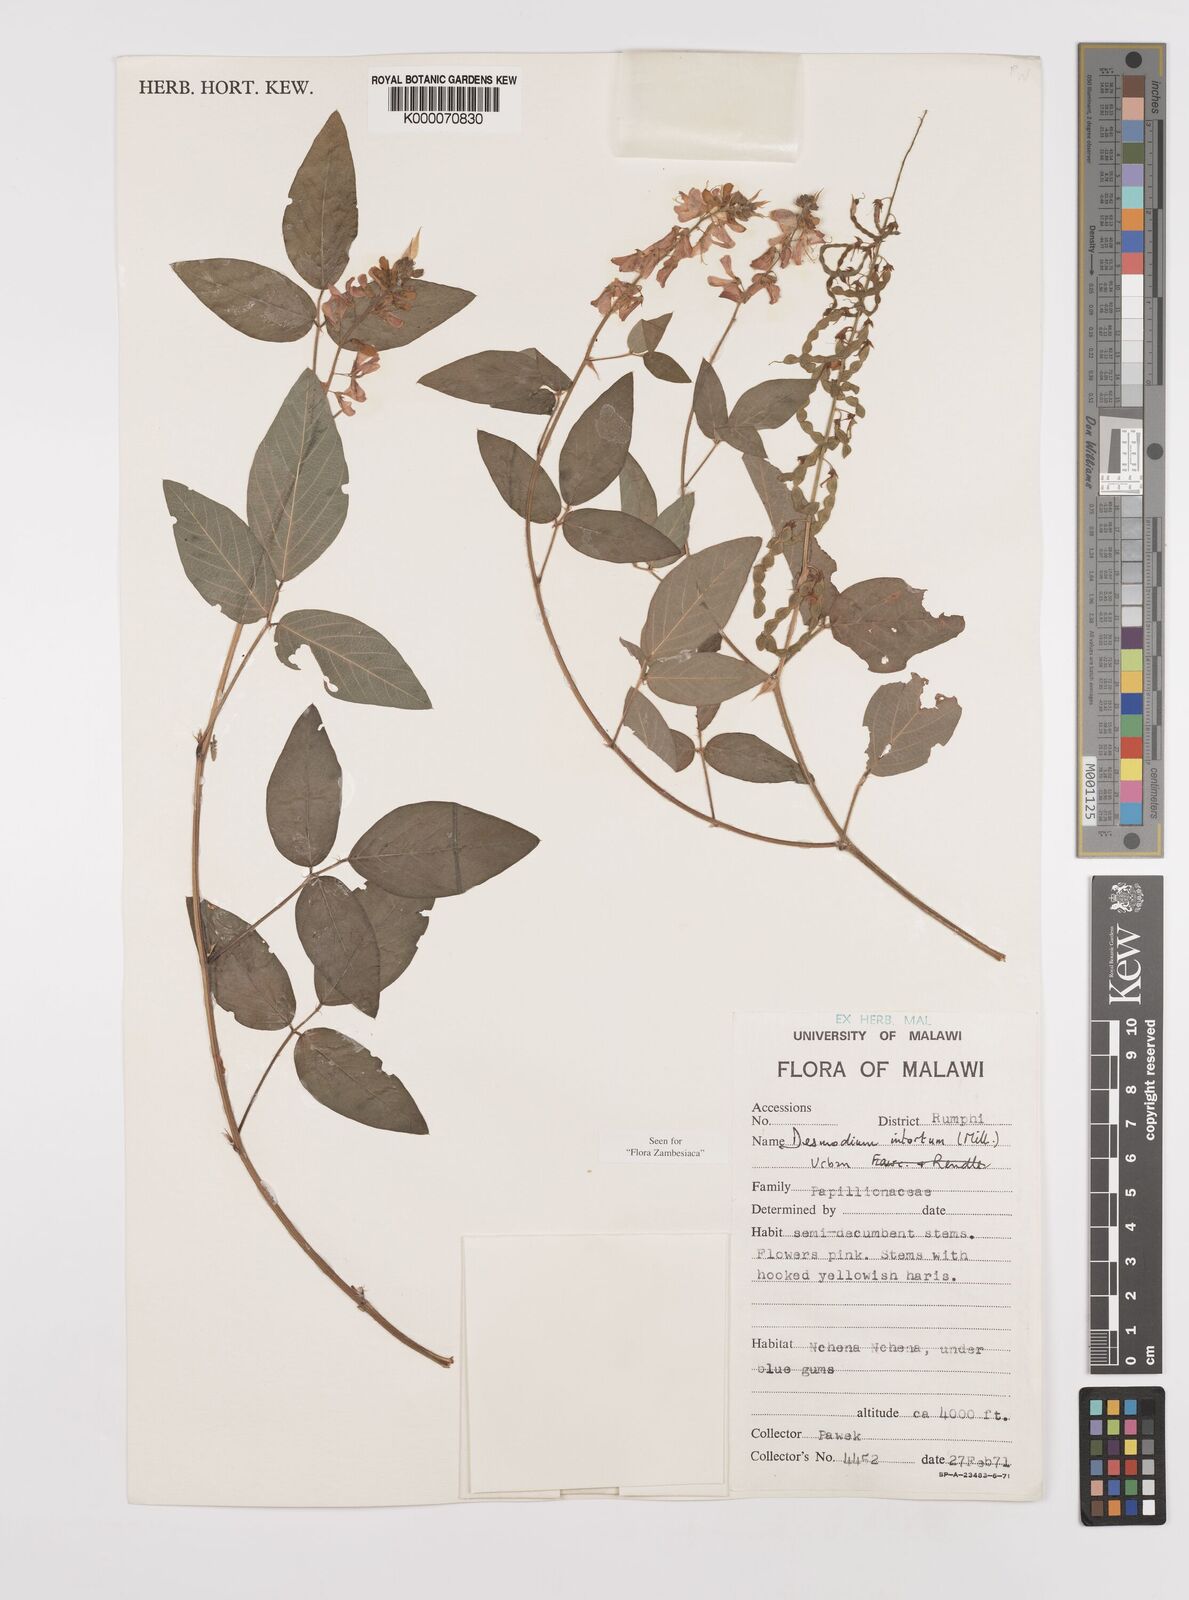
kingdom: Plantae
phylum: Tracheophyta
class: Magnoliopsida
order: Fabales
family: Fabaceae
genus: Desmodium
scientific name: Desmodium intortum
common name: Greenleaf ticktrefoil
